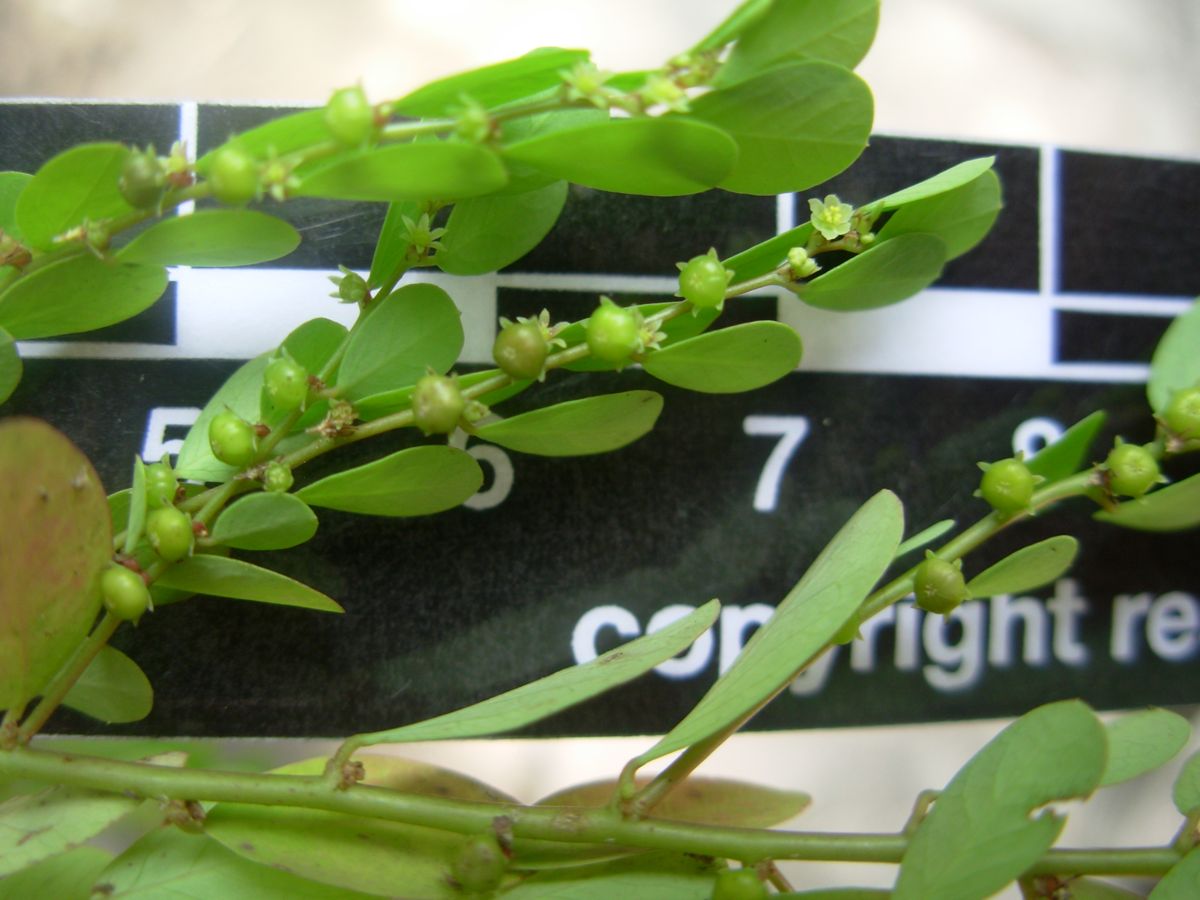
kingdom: Plantae
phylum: Tracheophyta
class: Magnoliopsida
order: Malpighiales
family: Phyllanthaceae
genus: Phyllanthus
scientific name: Phyllanthus caroliniensis
